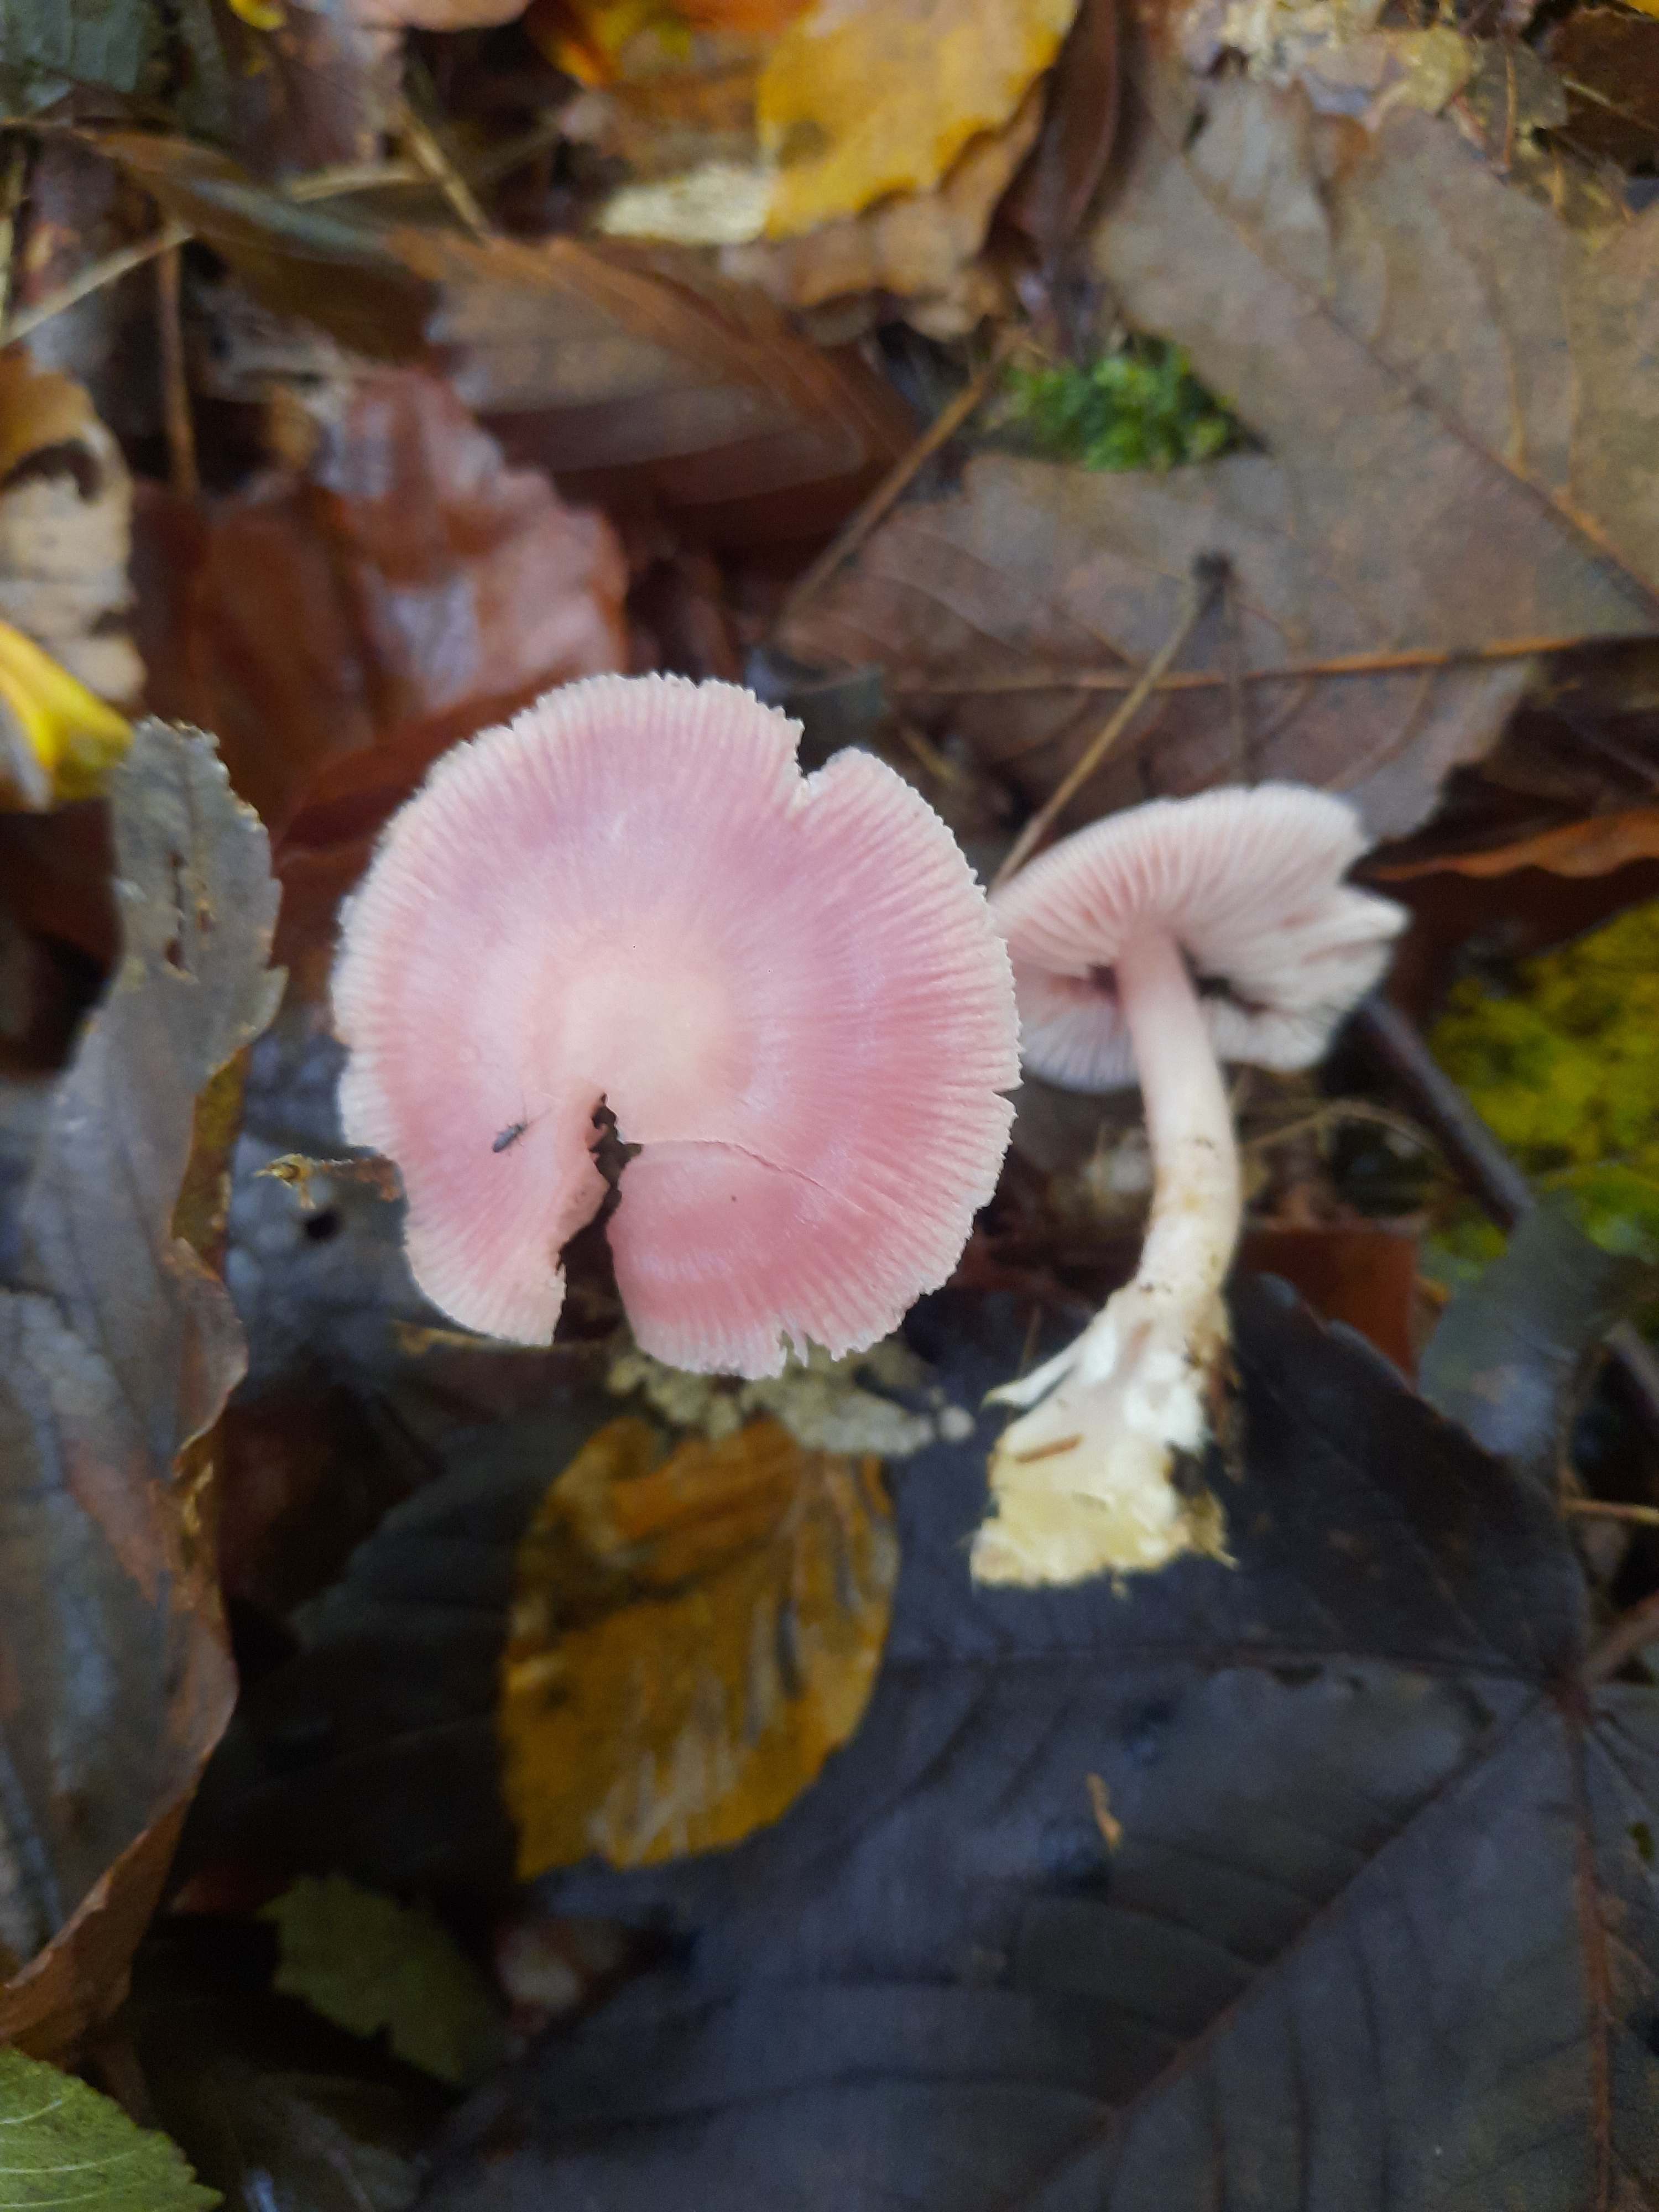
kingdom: Fungi
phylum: Basidiomycota
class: Agaricomycetes
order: Agaricales
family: Mycenaceae
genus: Mycena
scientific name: Mycena rosea
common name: rosa huesvamp
